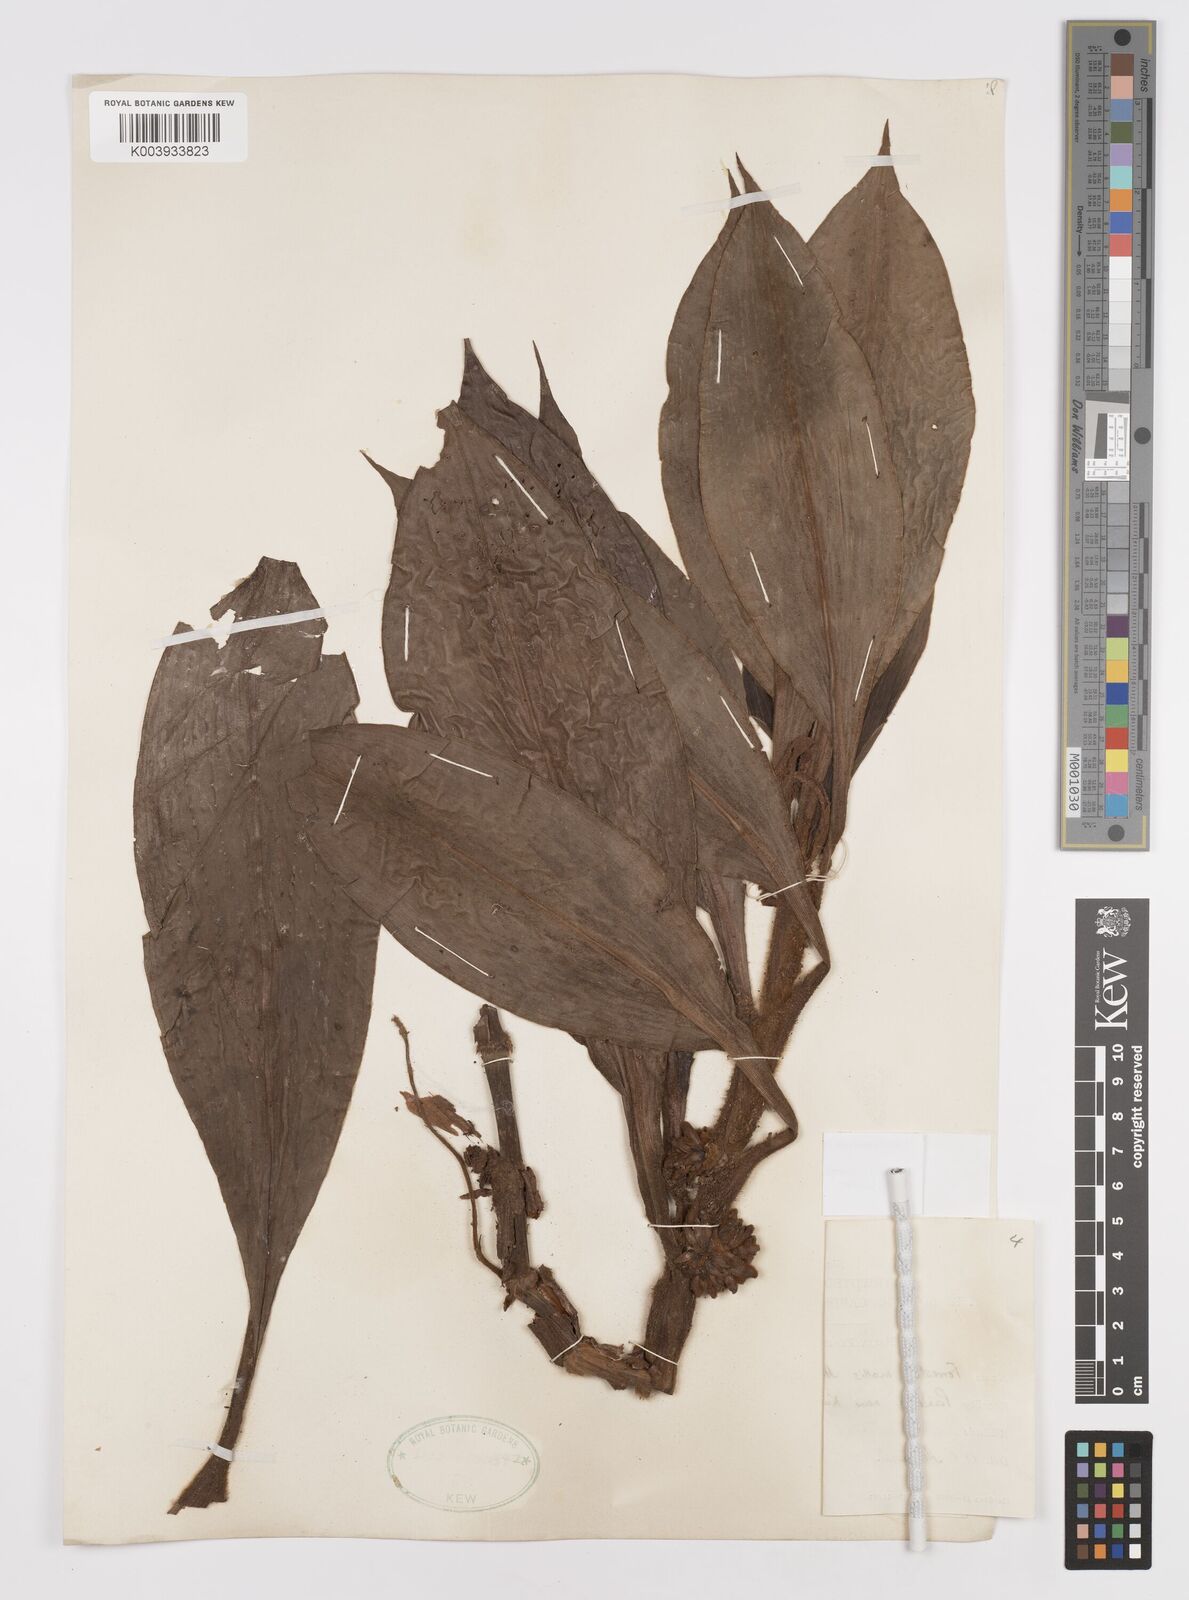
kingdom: Plantae
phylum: Tracheophyta
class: Liliopsida
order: Commelinales
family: Commelinaceae
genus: Amischotolype
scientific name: Amischotolype barbarossa
